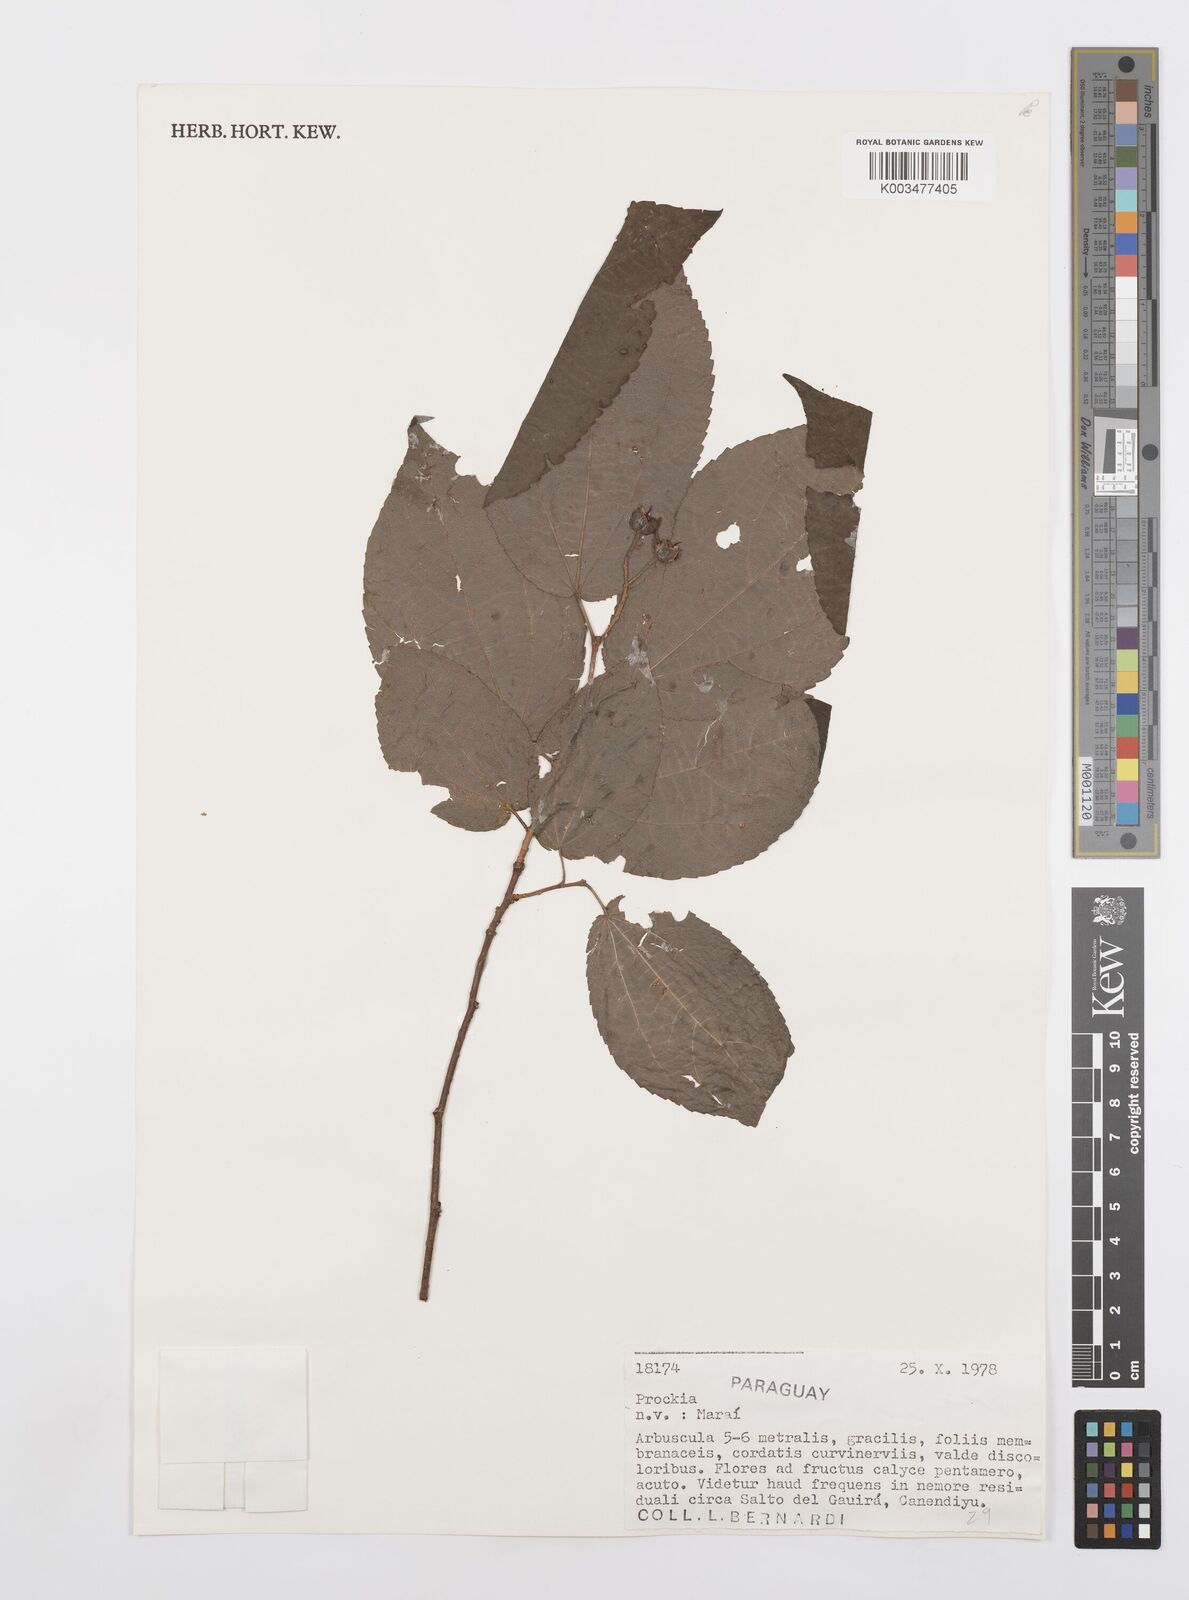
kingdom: Plantae
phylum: Tracheophyta
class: Magnoliopsida
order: Malpighiales
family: Salicaceae
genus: Prockia
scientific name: Prockia
